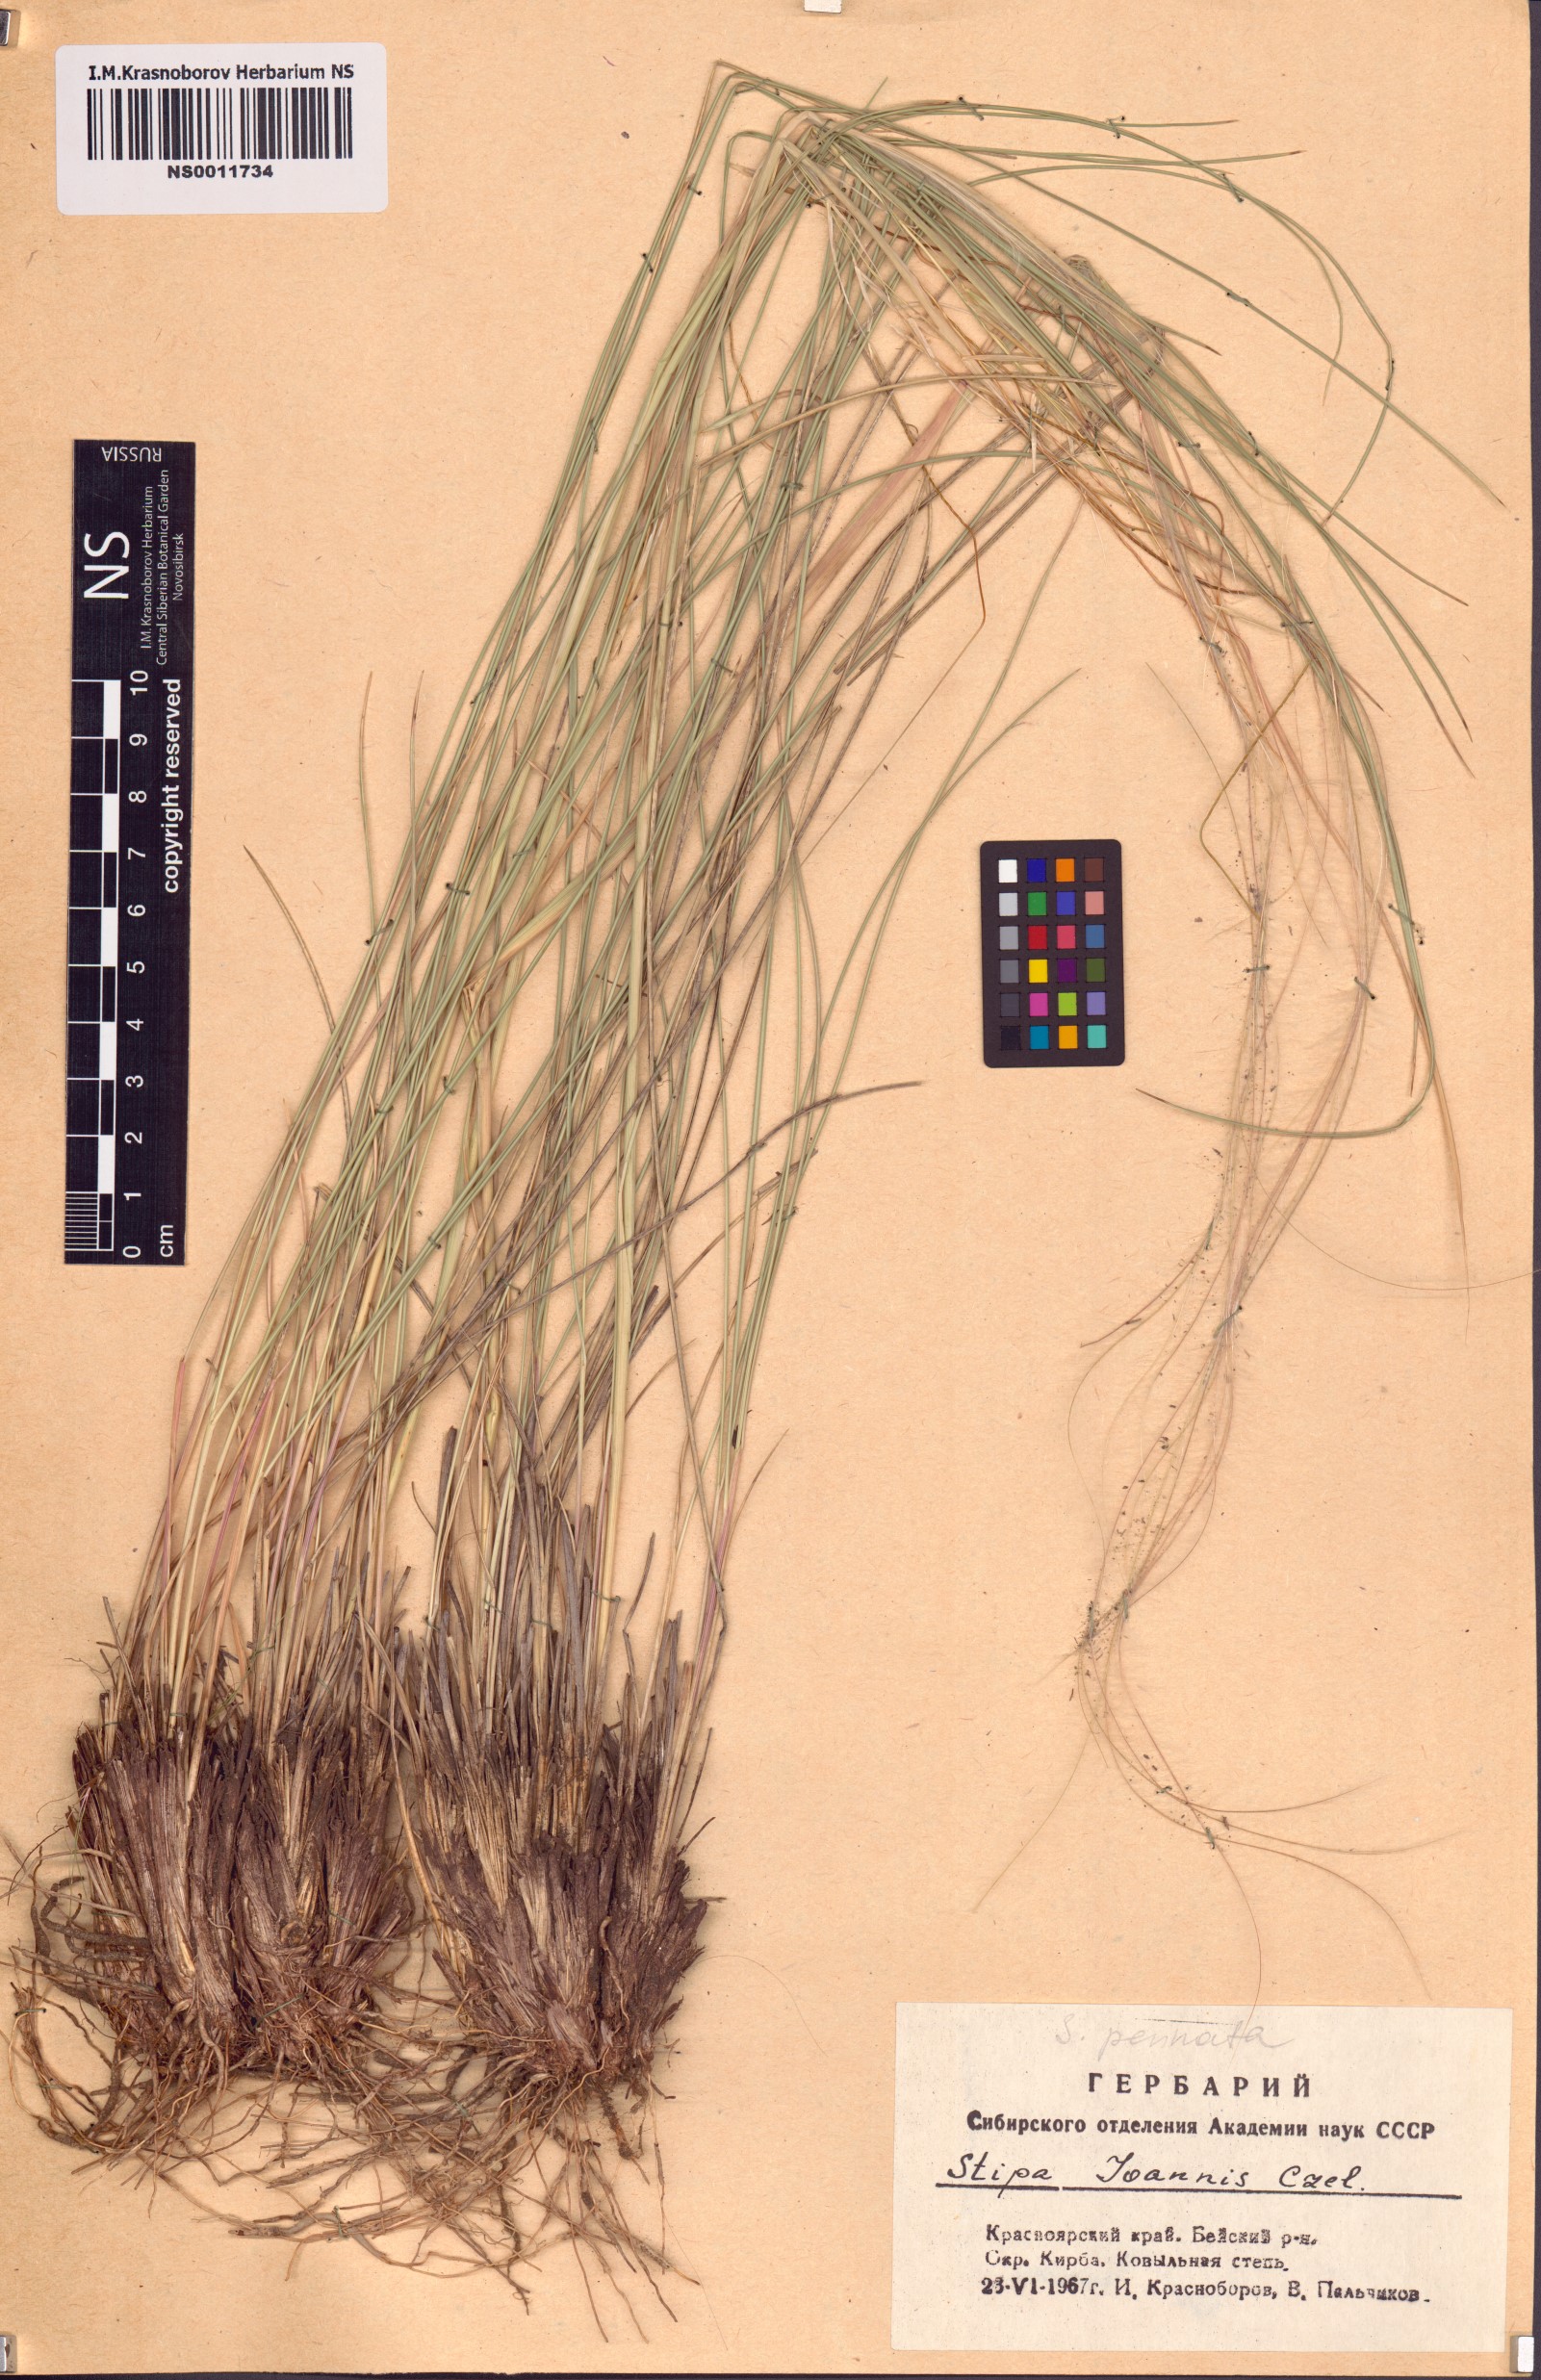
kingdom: Plantae
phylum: Tracheophyta
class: Liliopsida
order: Poales
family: Poaceae
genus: Stipa
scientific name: Stipa pennata
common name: European feather grass
